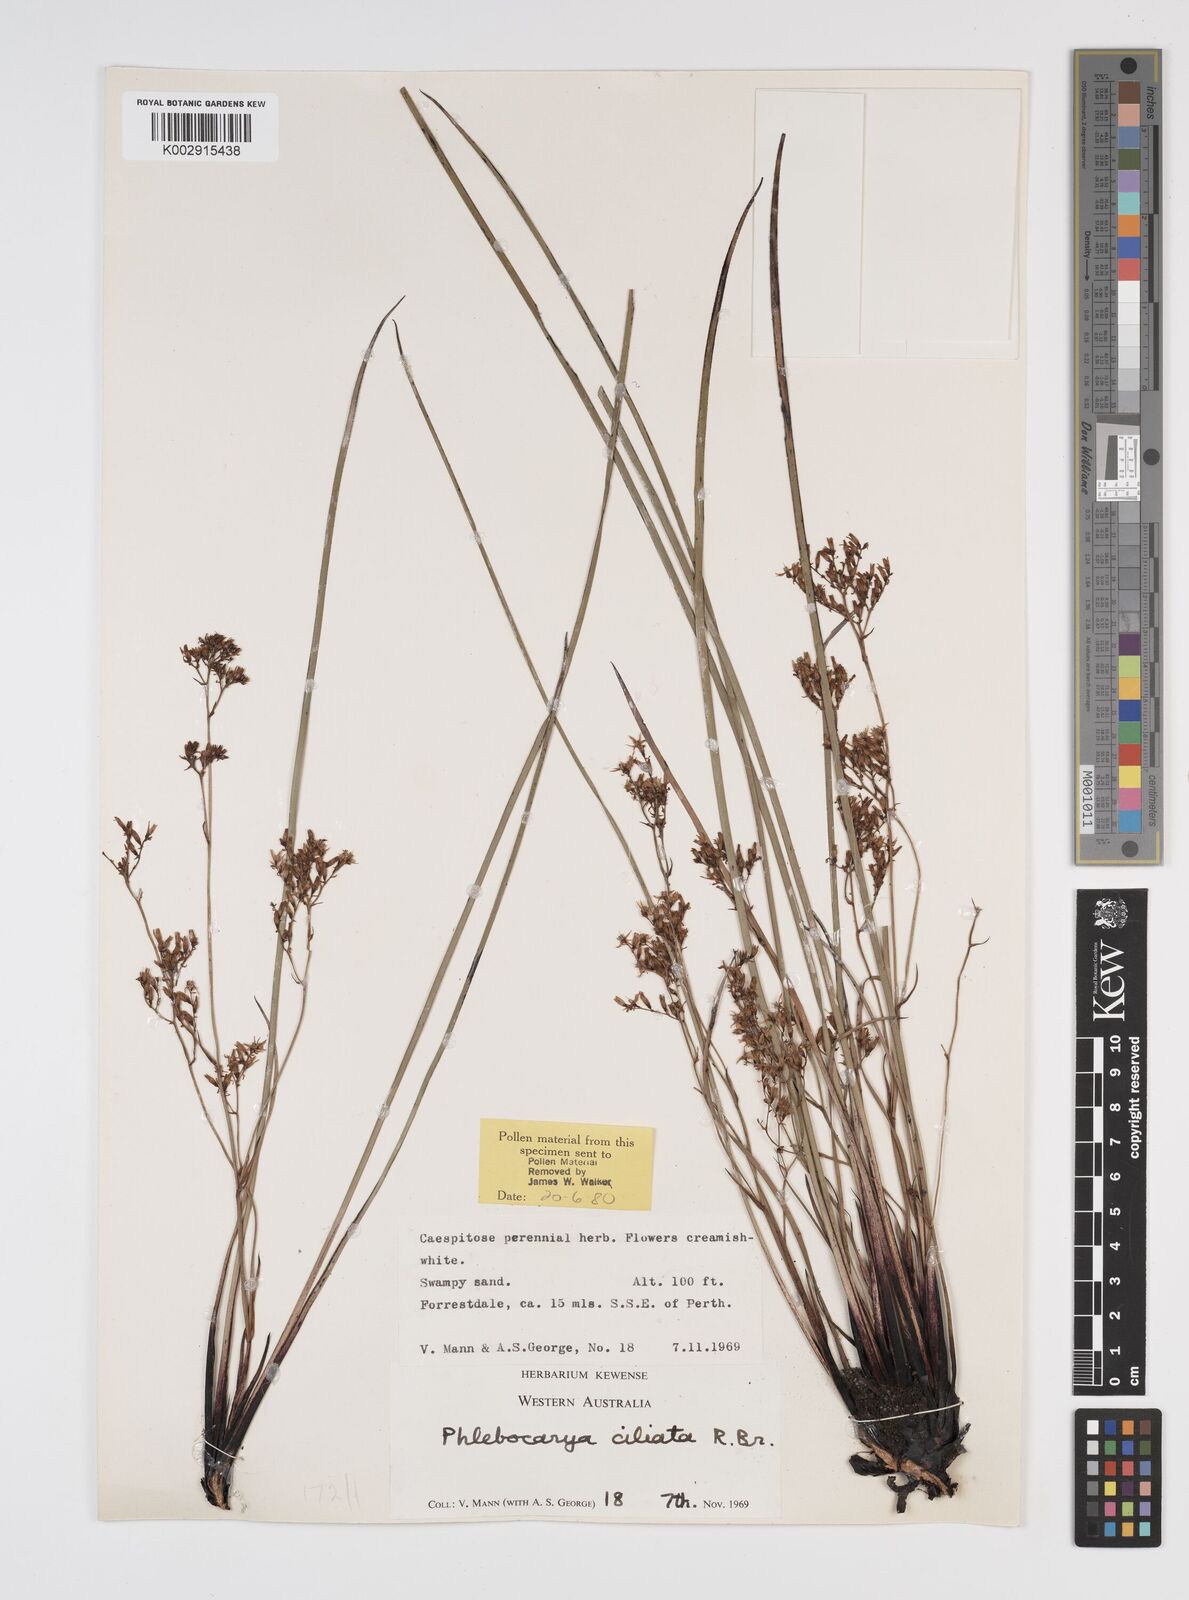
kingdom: Plantae
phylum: Tracheophyta
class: Liliopsida
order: Commelinales
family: Haemodoraceae
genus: Phlebocarya
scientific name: Phlebocarya ciliata
